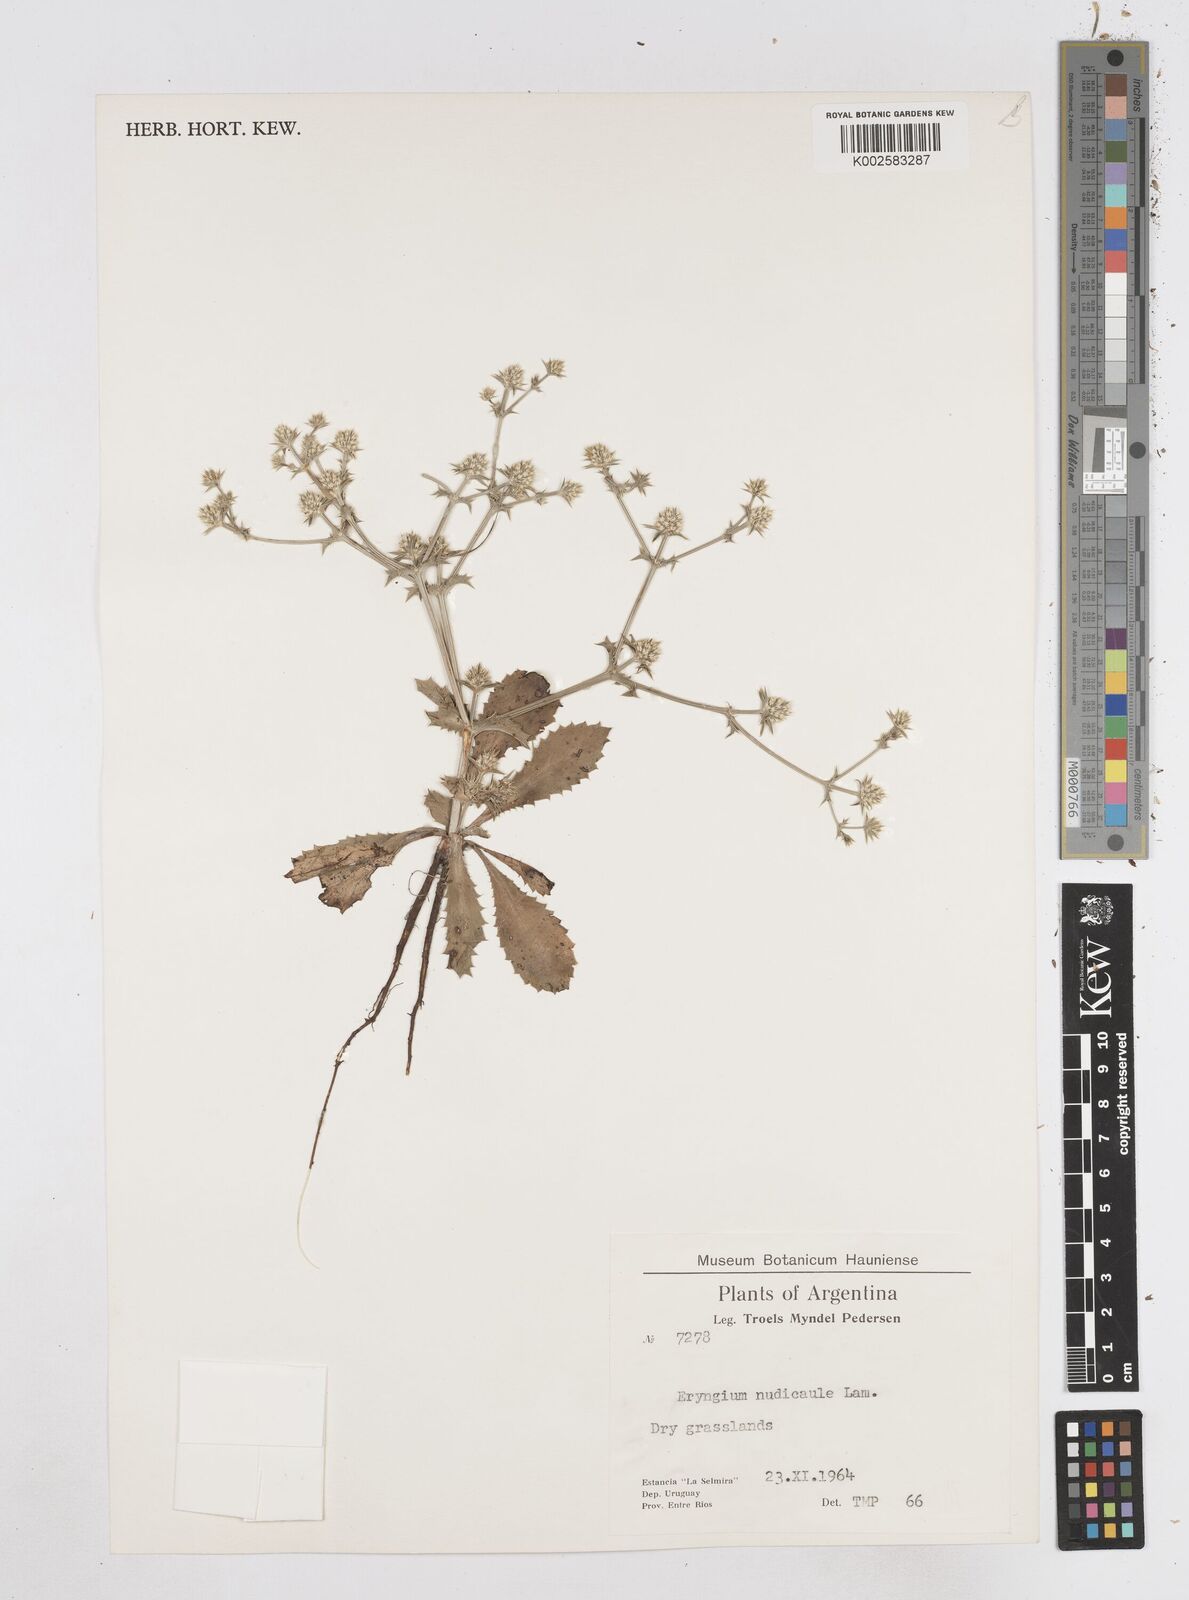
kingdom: Plantae
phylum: Tracheophyta
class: Magnoliopsida
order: Apiales
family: Apiaceae
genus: Eryngium
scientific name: Eryngium nudicaule
